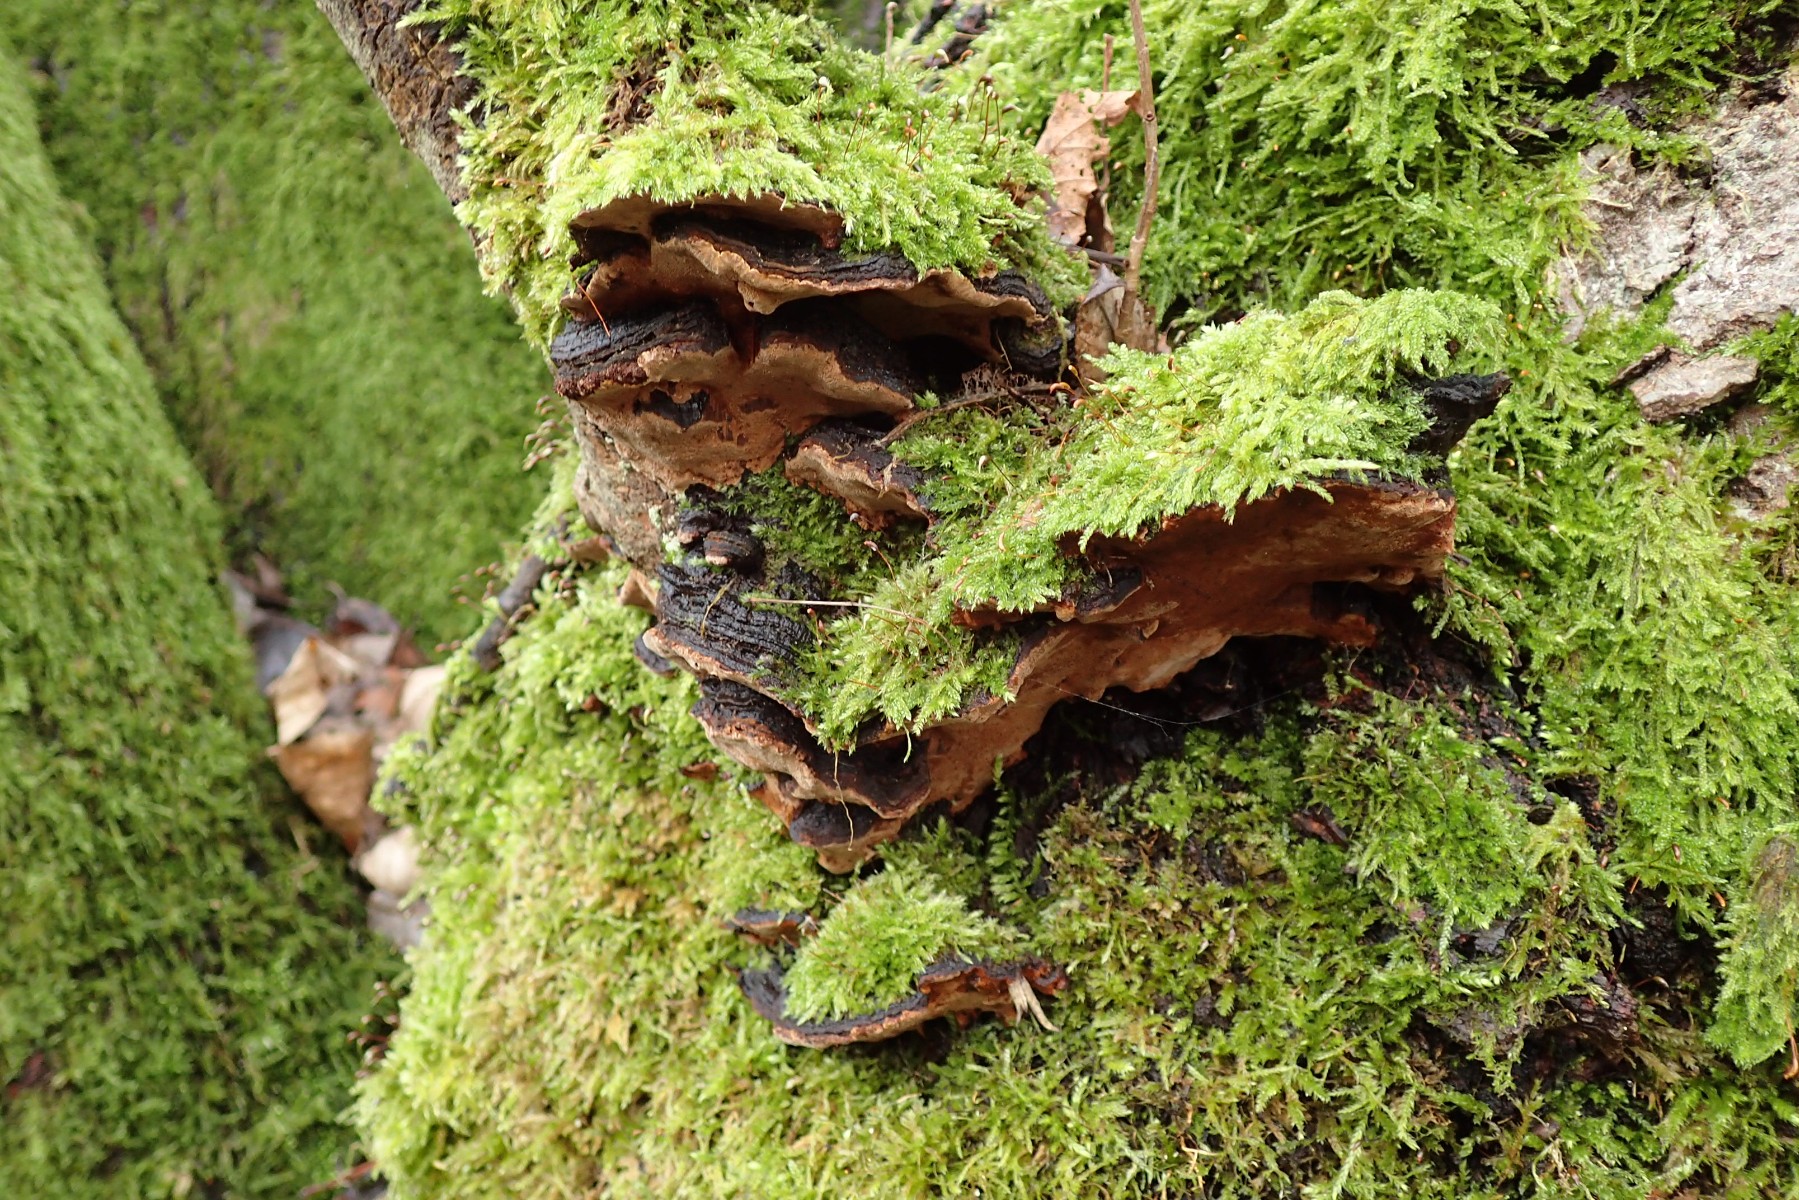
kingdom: Fungi
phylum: Basidiomycota
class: Agaricomycetes
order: Hymenochaetales
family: Hymenochaetaceae
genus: Phellinopsis
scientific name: Phellinopsis conchata
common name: pile-ildporesvamp
